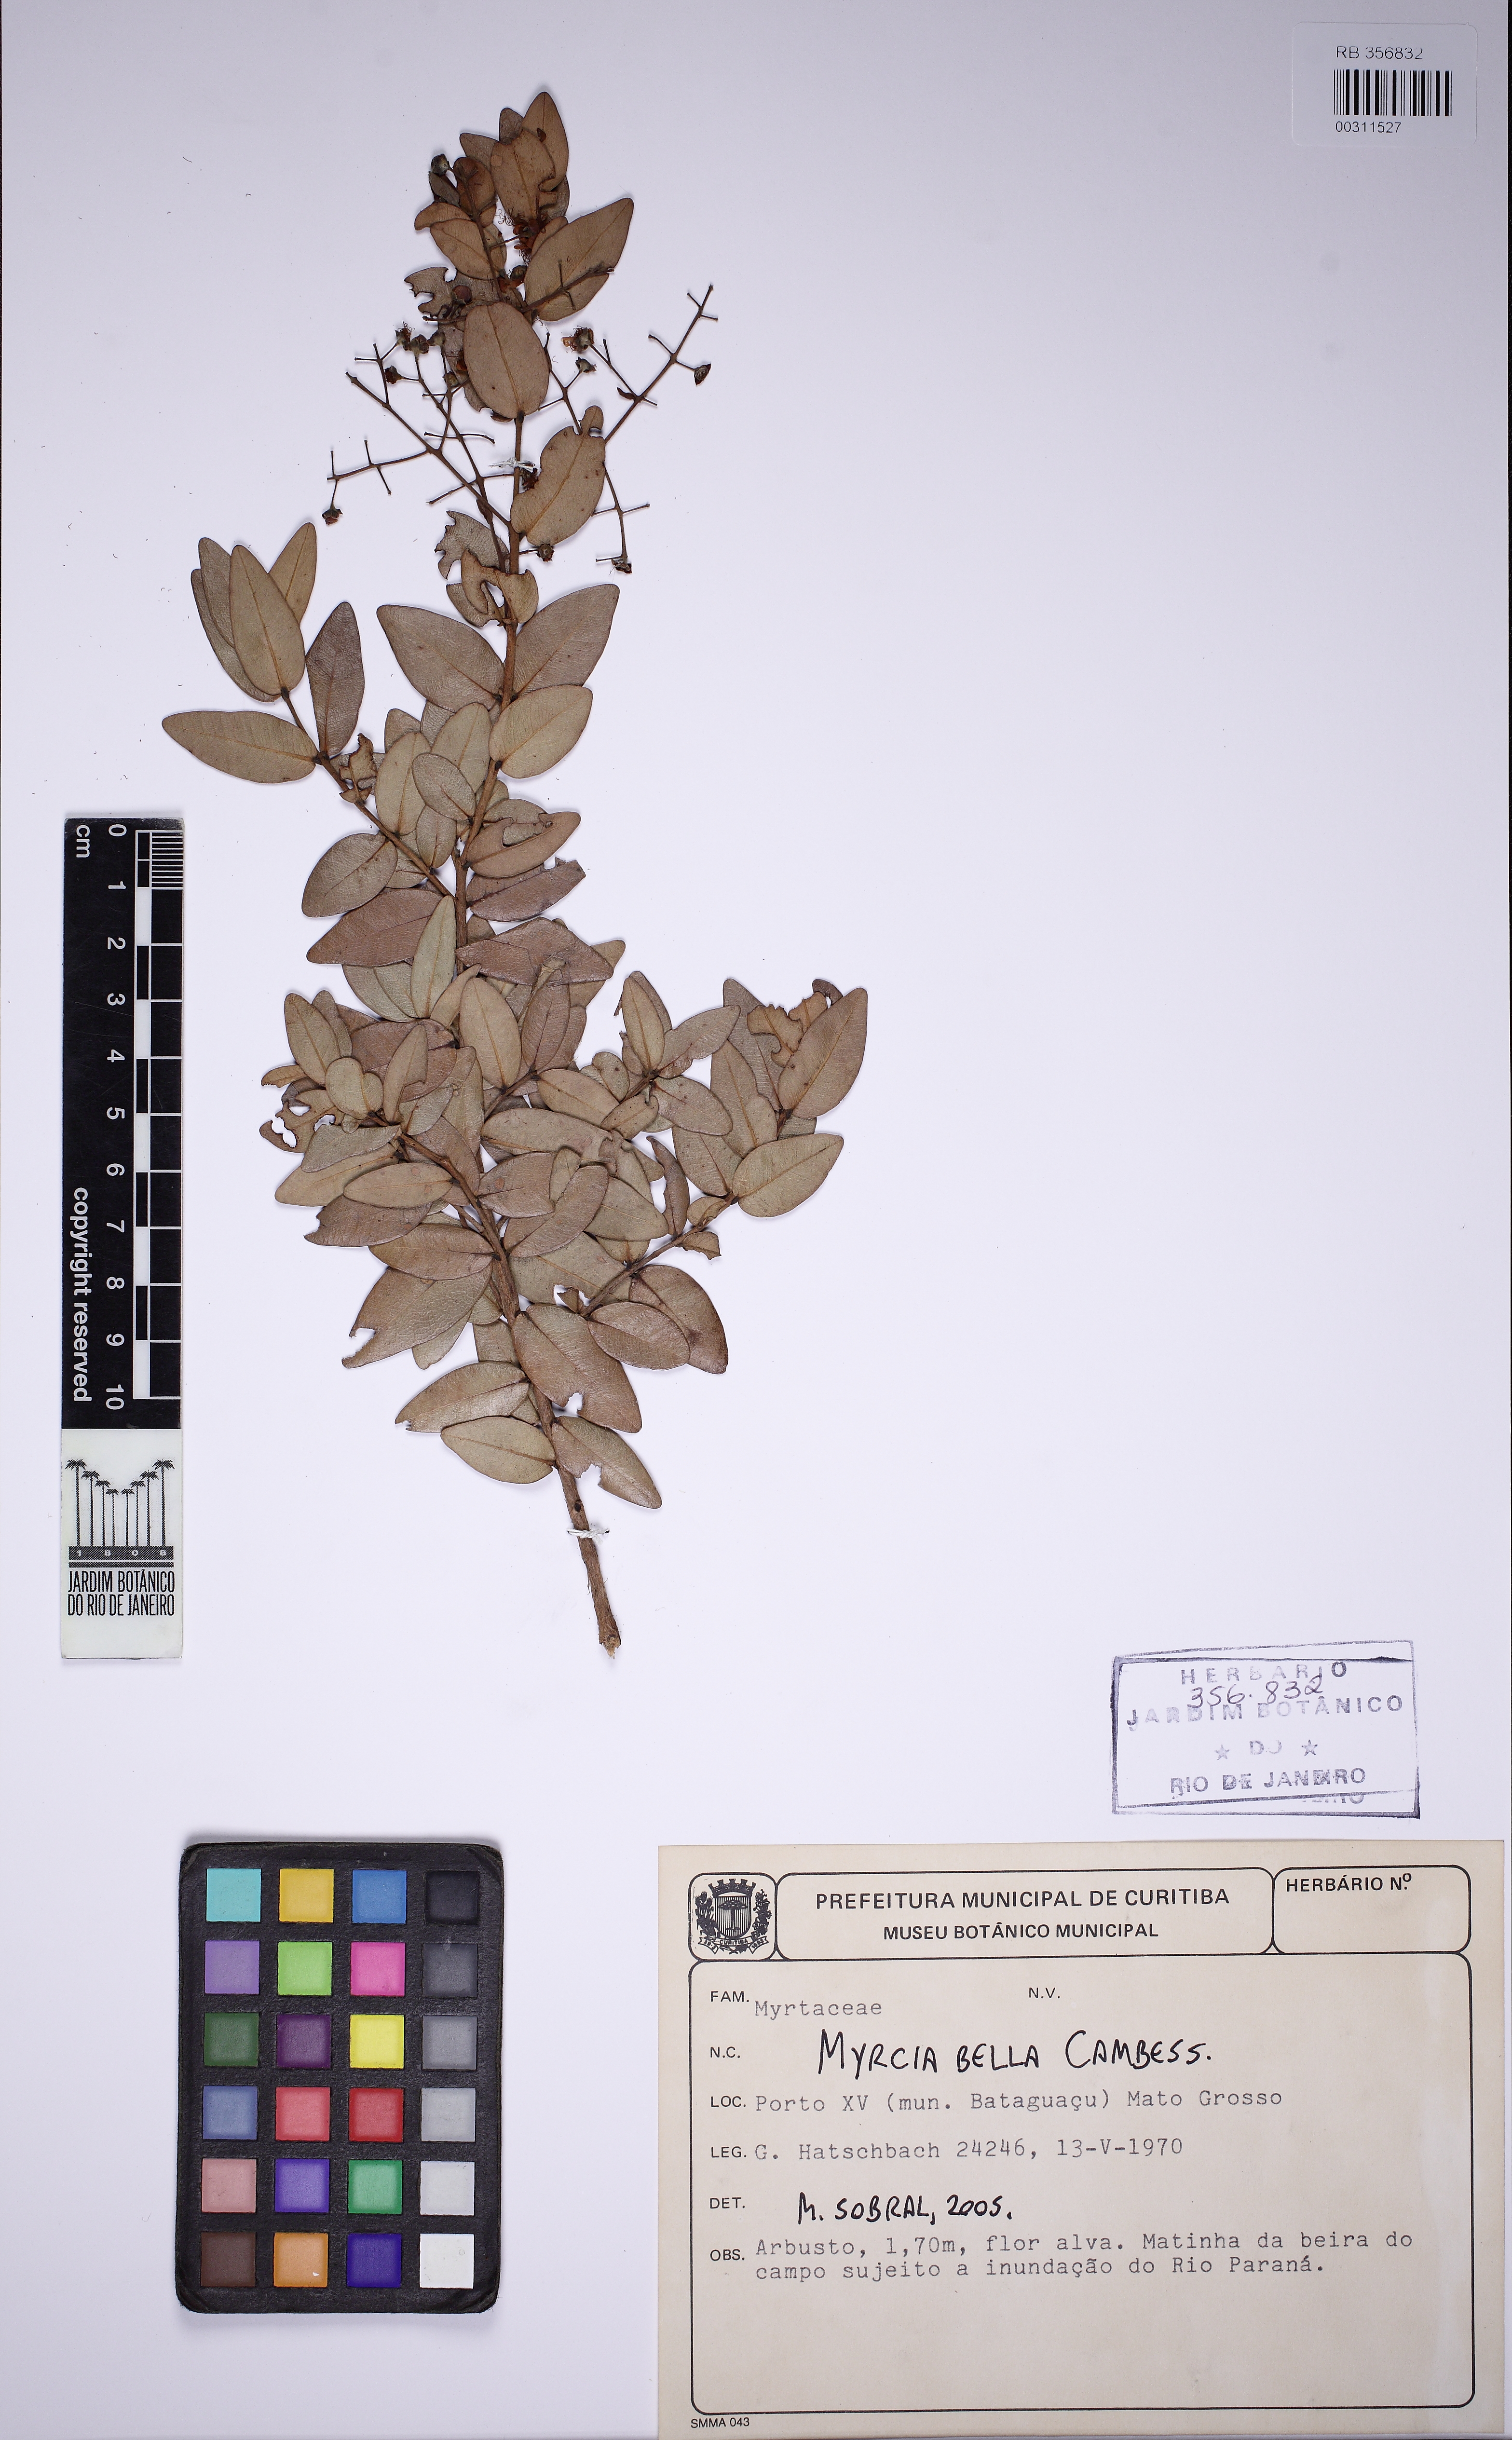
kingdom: Plantae
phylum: Tracheophyta
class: Magnoliopsida
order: Myrtales
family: Myrtaceae
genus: Myrcia
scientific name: Myrcia bella
